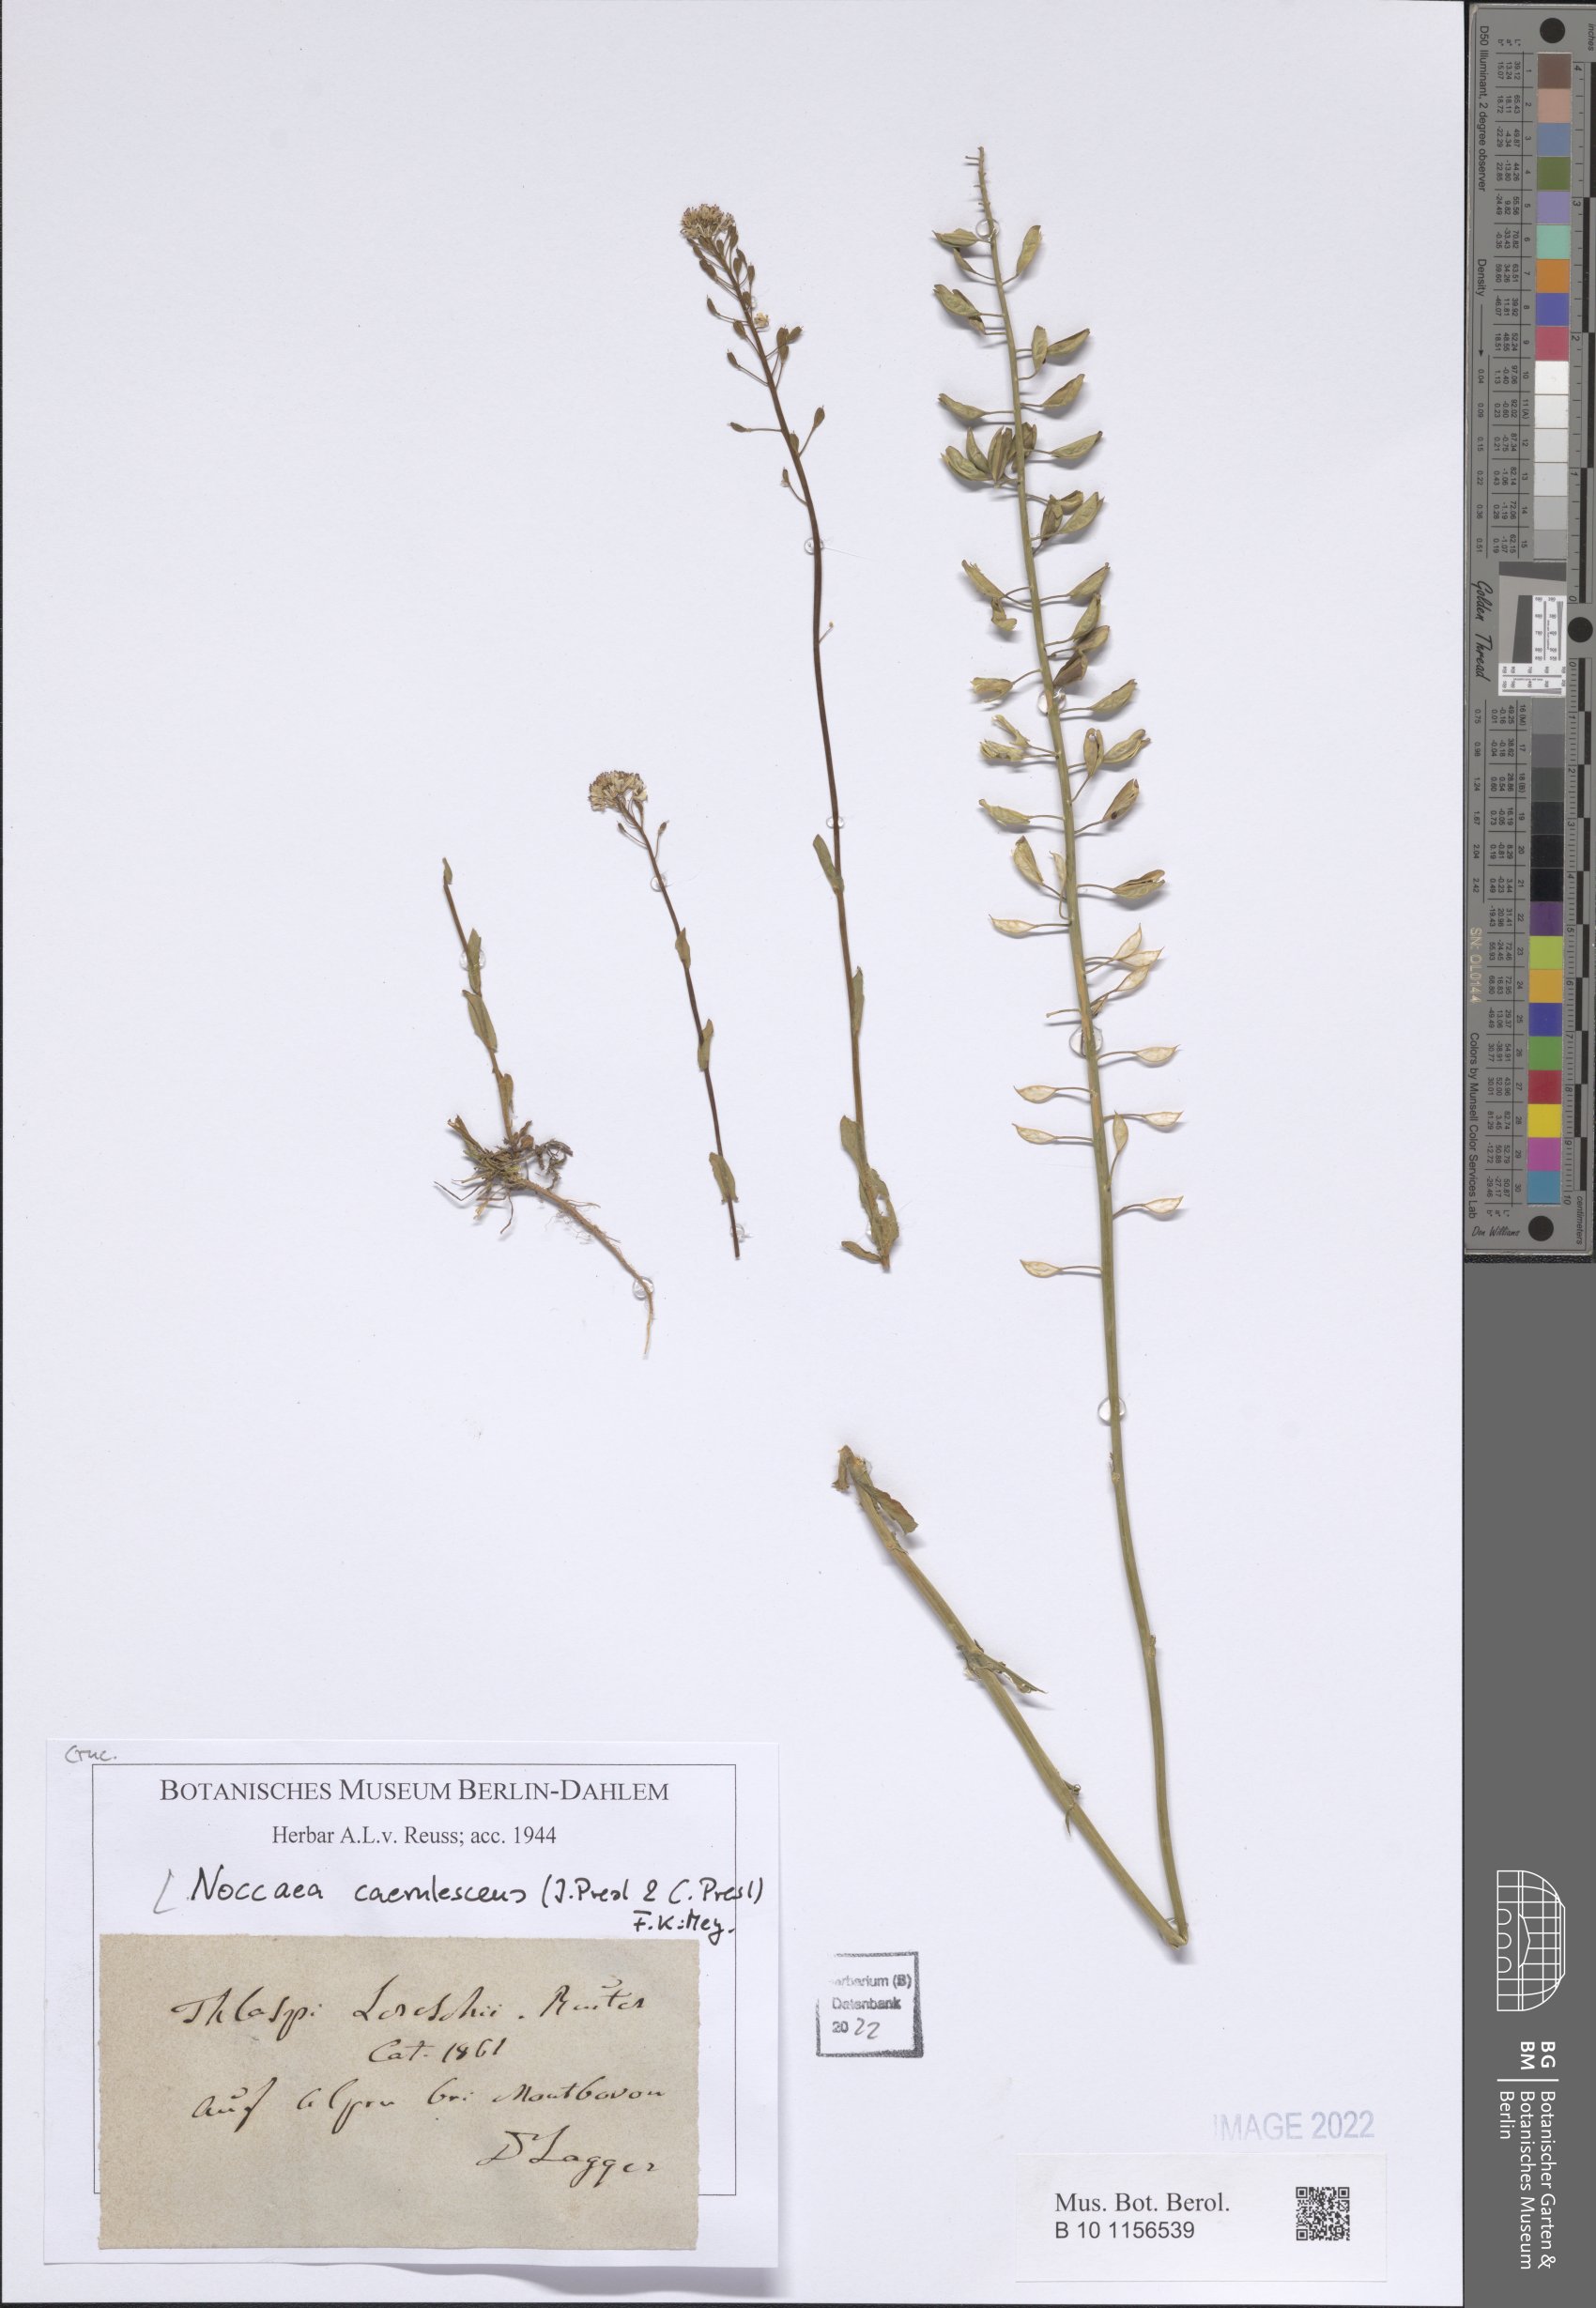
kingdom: Plantae
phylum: Tracheophyta
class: Magnoliopsida
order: Brassicales
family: Brassicaceae
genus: Noccaea
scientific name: Noccaea caerulescens
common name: Alpine pennycress
